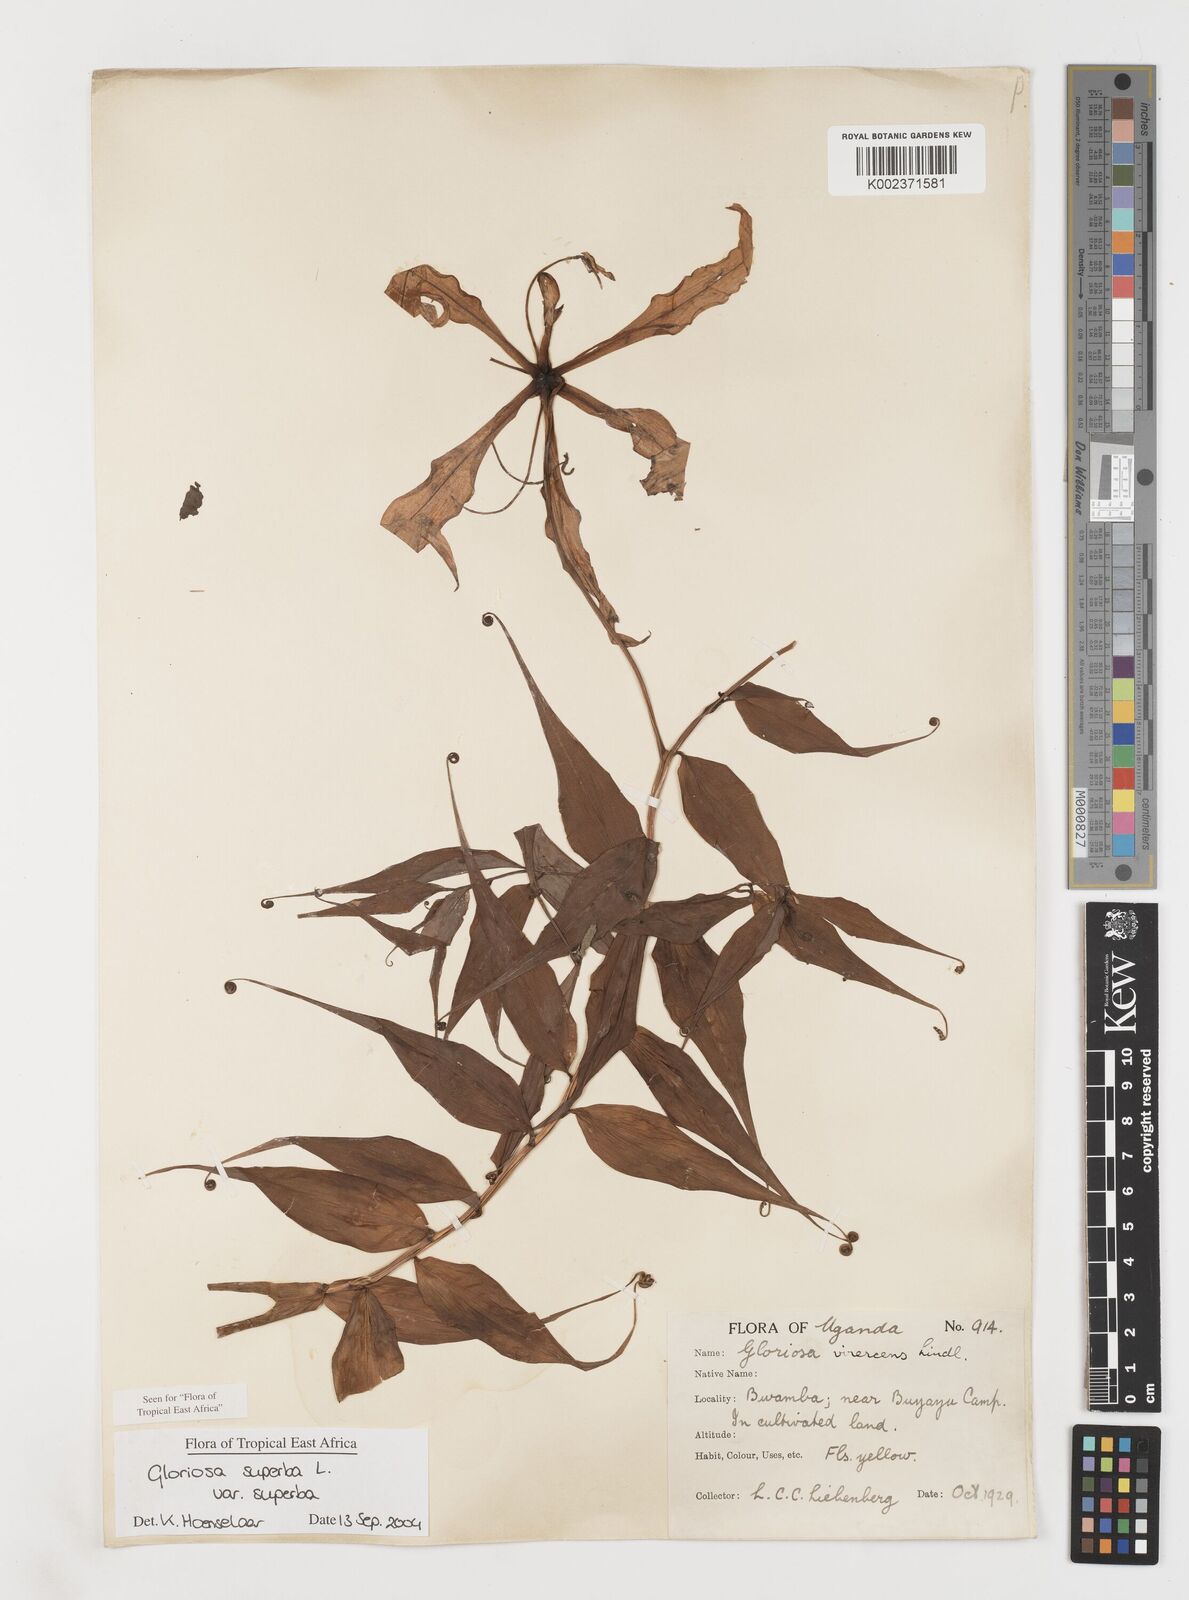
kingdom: Plantae
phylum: Tracheophyta
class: Liliopsida
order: Liliales
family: Colchicaceae
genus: Gloriosa
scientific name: Gloriosa simplex
